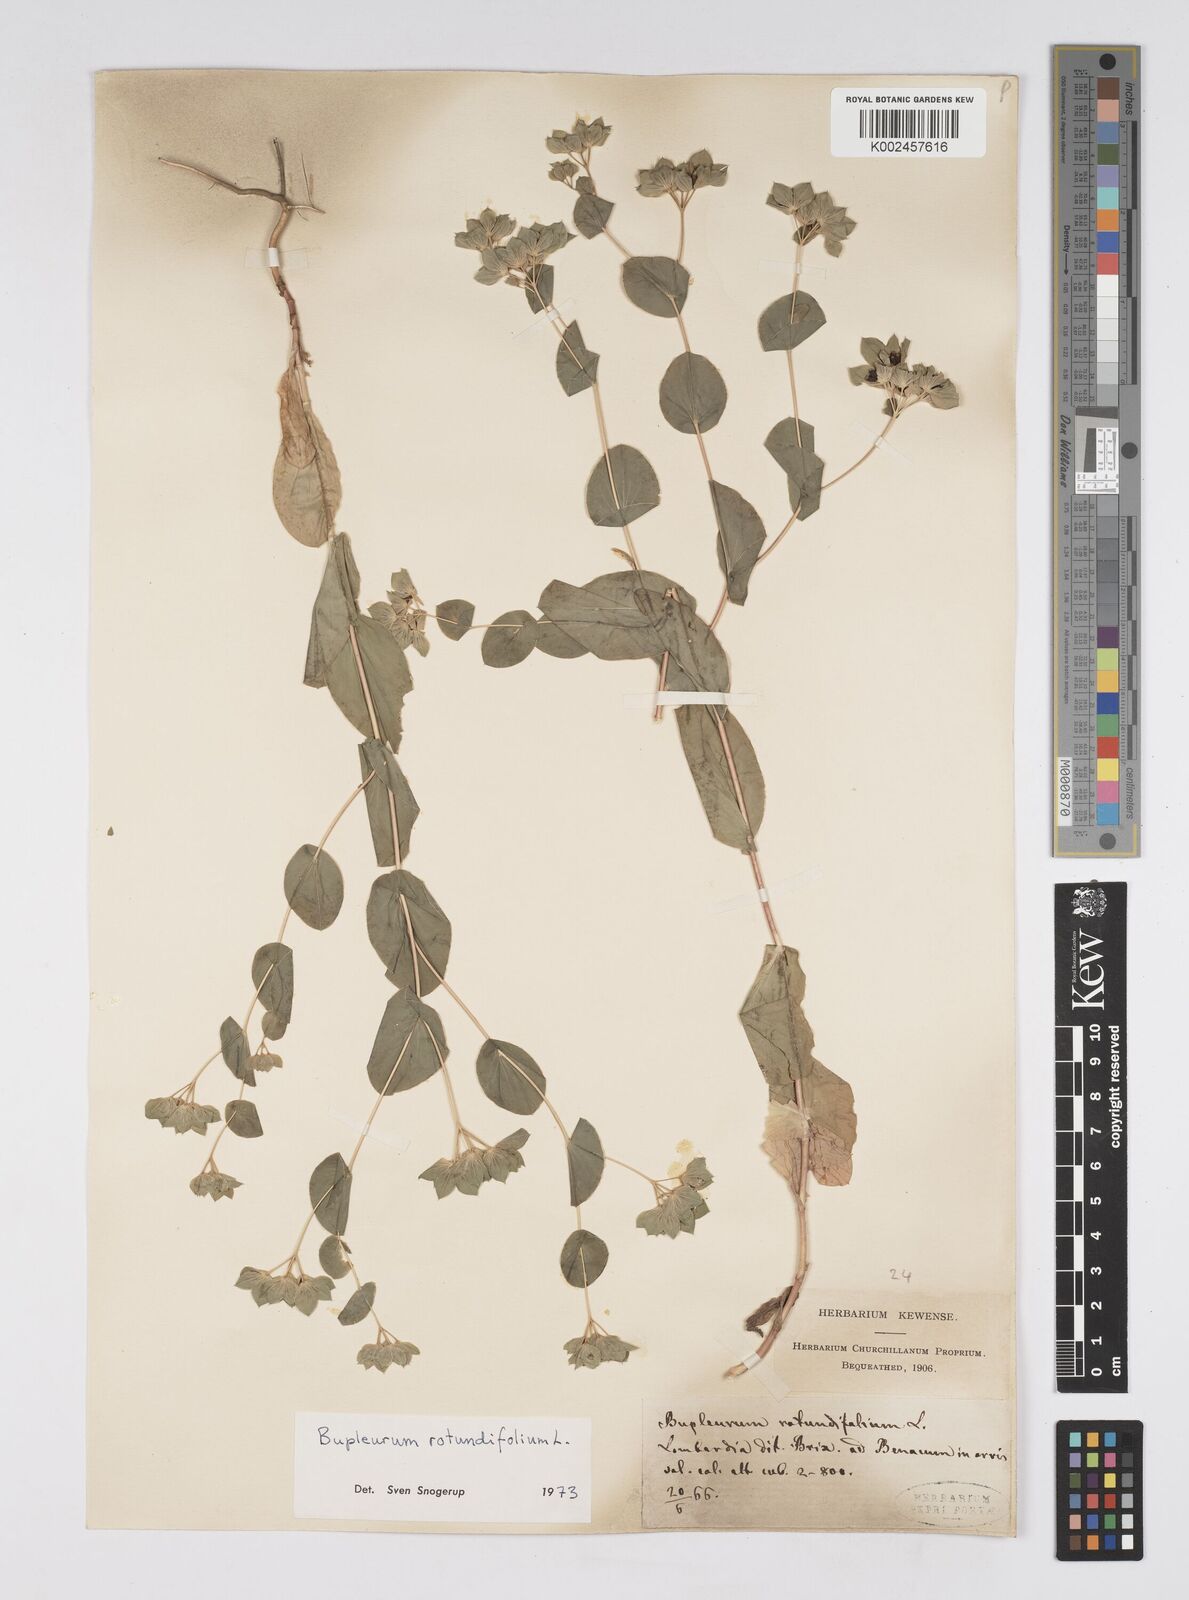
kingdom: Plantae
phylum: Tracheophyta
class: Magnoliopsida
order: Apiales
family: Apiaceae
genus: Bupleurum
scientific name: Bupleurum rotundifolium
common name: Thorow-wax
